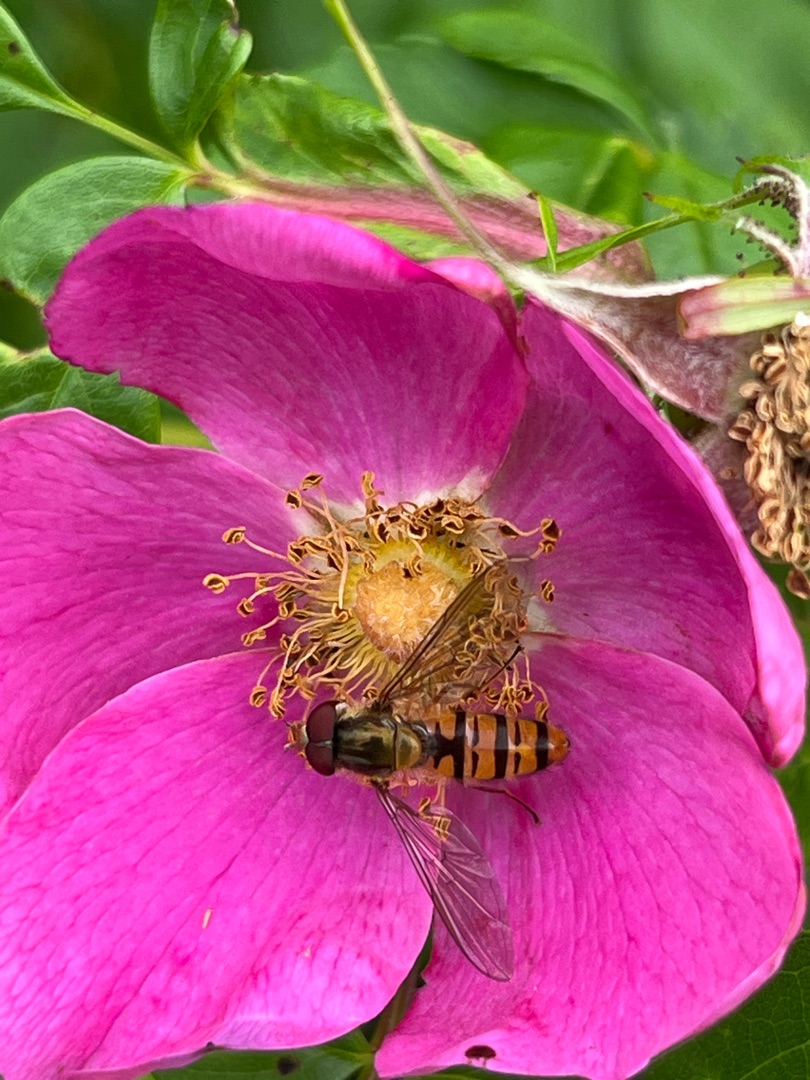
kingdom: Animalia
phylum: Arthropoda
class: Insecta
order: Diptera
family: Syrphidae
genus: Episyrphus
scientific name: Episyrphus balteatus
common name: Dobbeltbåndet svirreflue
